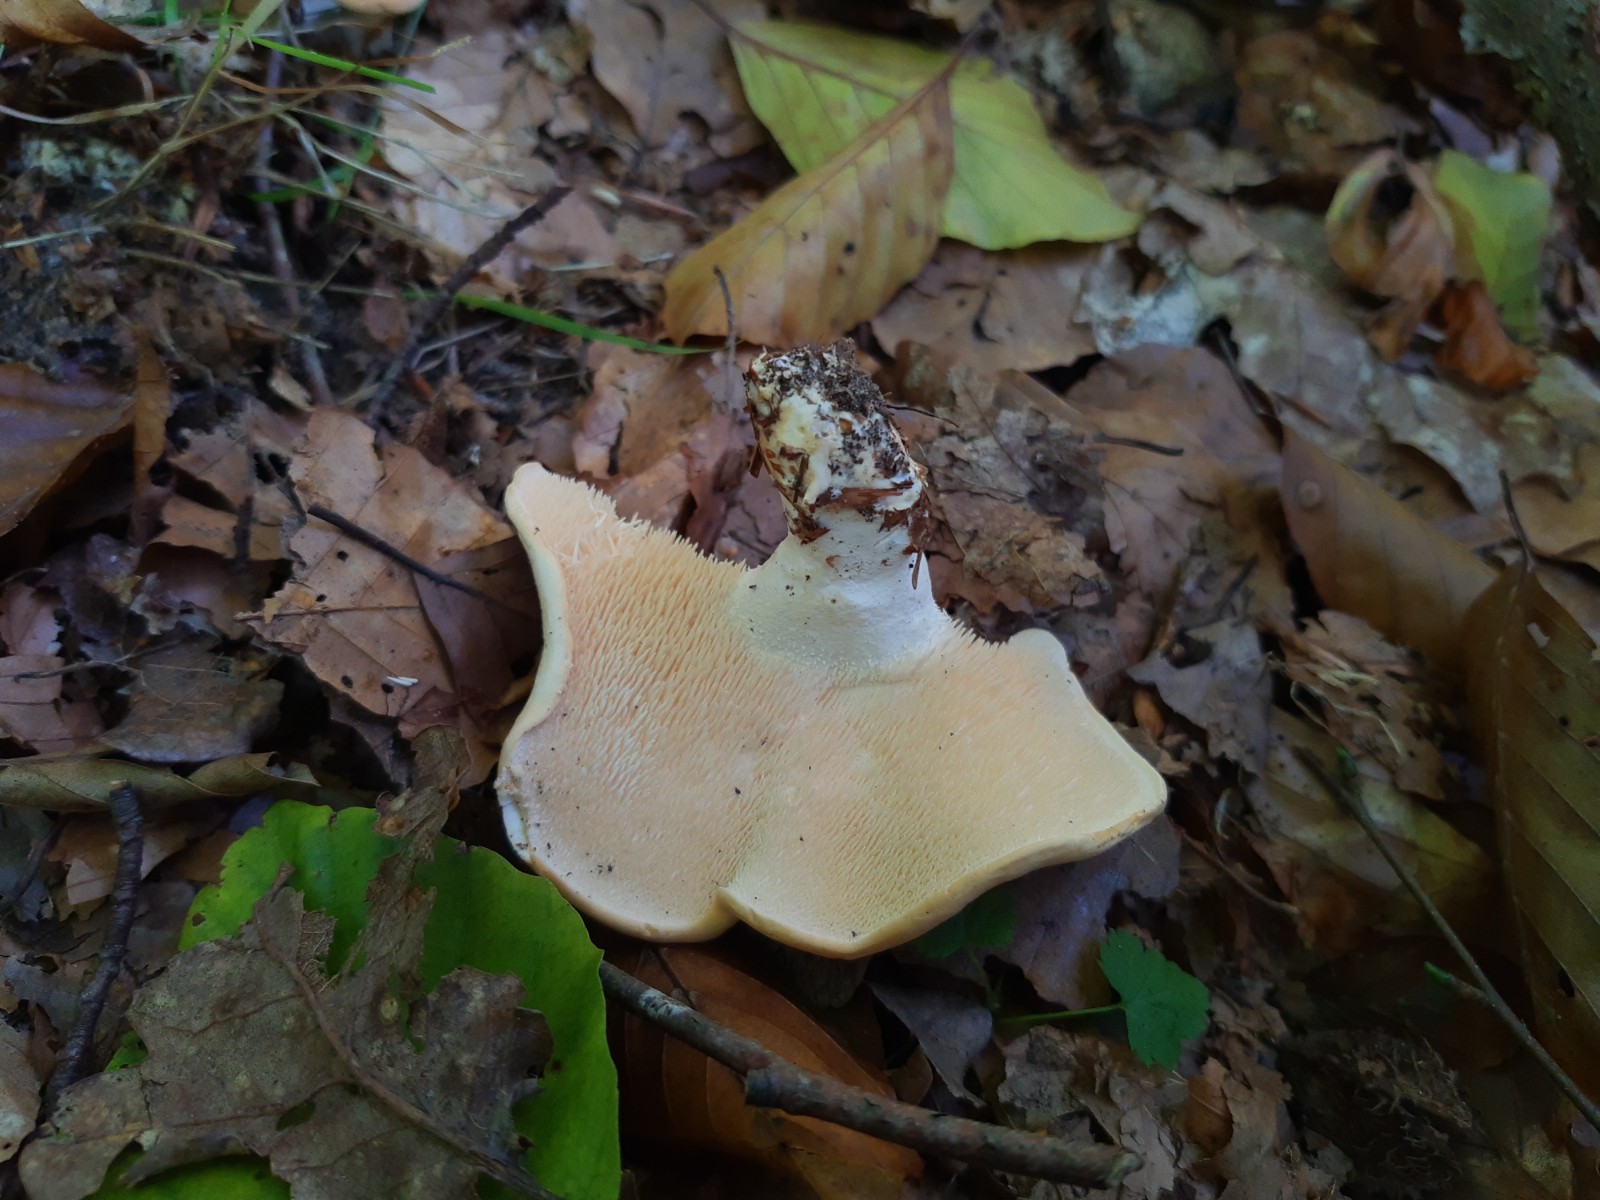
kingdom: Fungi
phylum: Basidiomycota
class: Agaricomycetes
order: Cantharellales
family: Hydnaceae
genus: Hydnum
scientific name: Hydnum repandum
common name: almindelig pigsvamp
